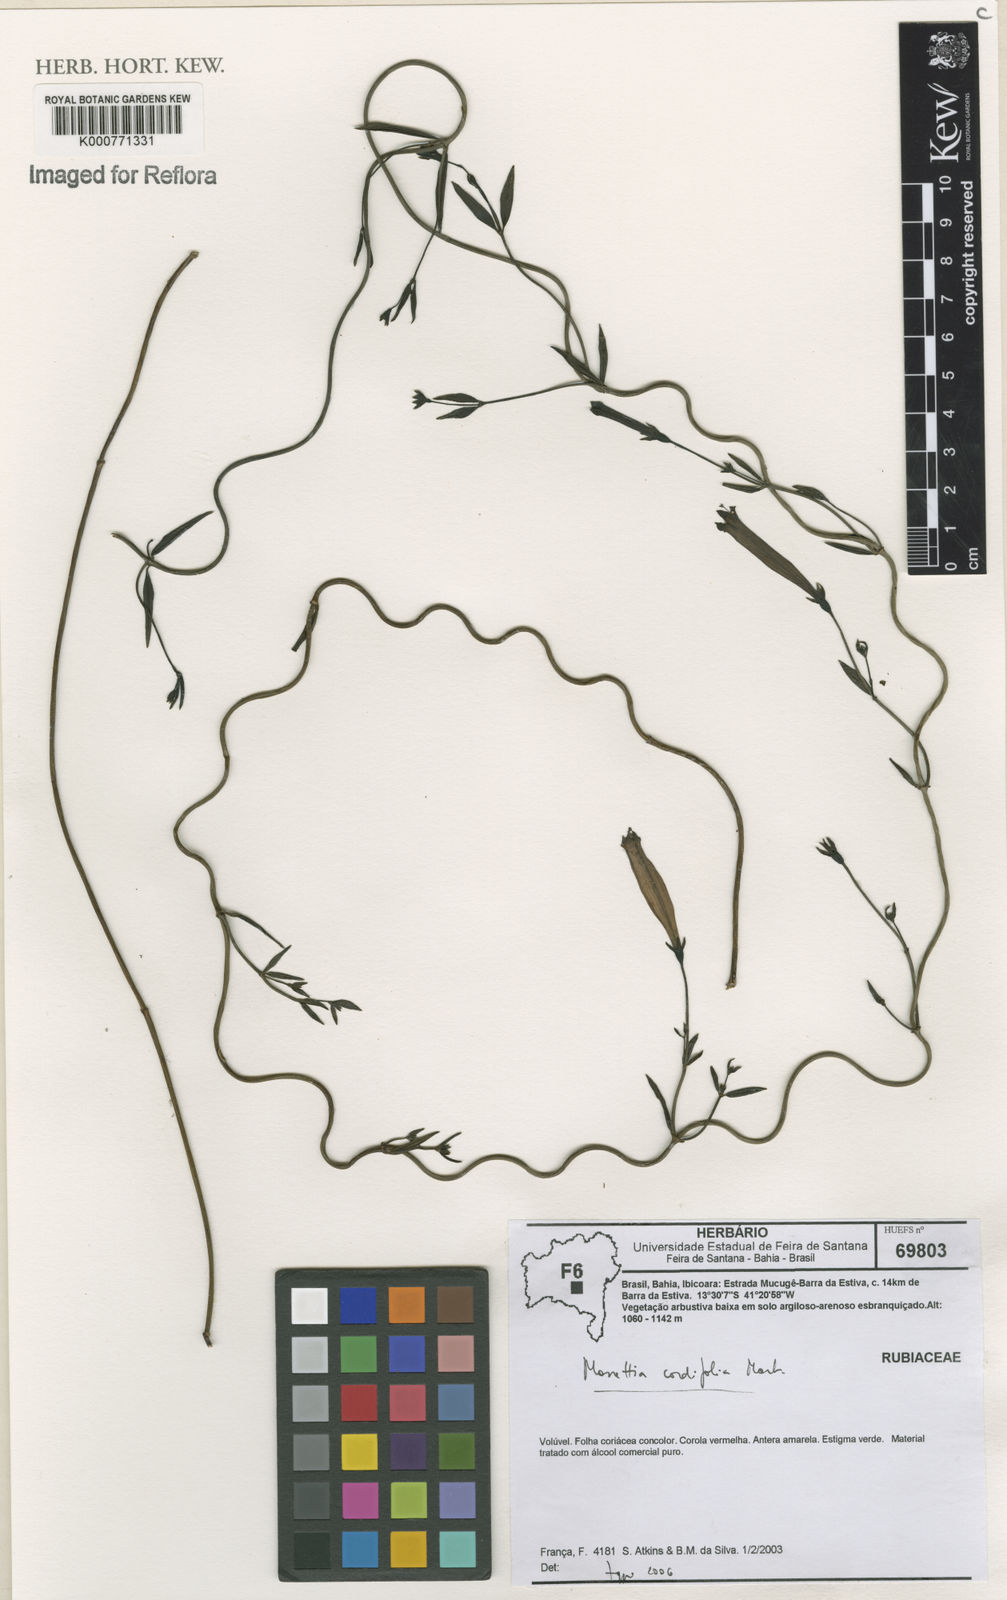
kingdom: Plantae
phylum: Tracheophyta
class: Magnoliopsida
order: Gentianales
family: Rubiaceae
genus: Manettia
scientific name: Manettia cordifolia
